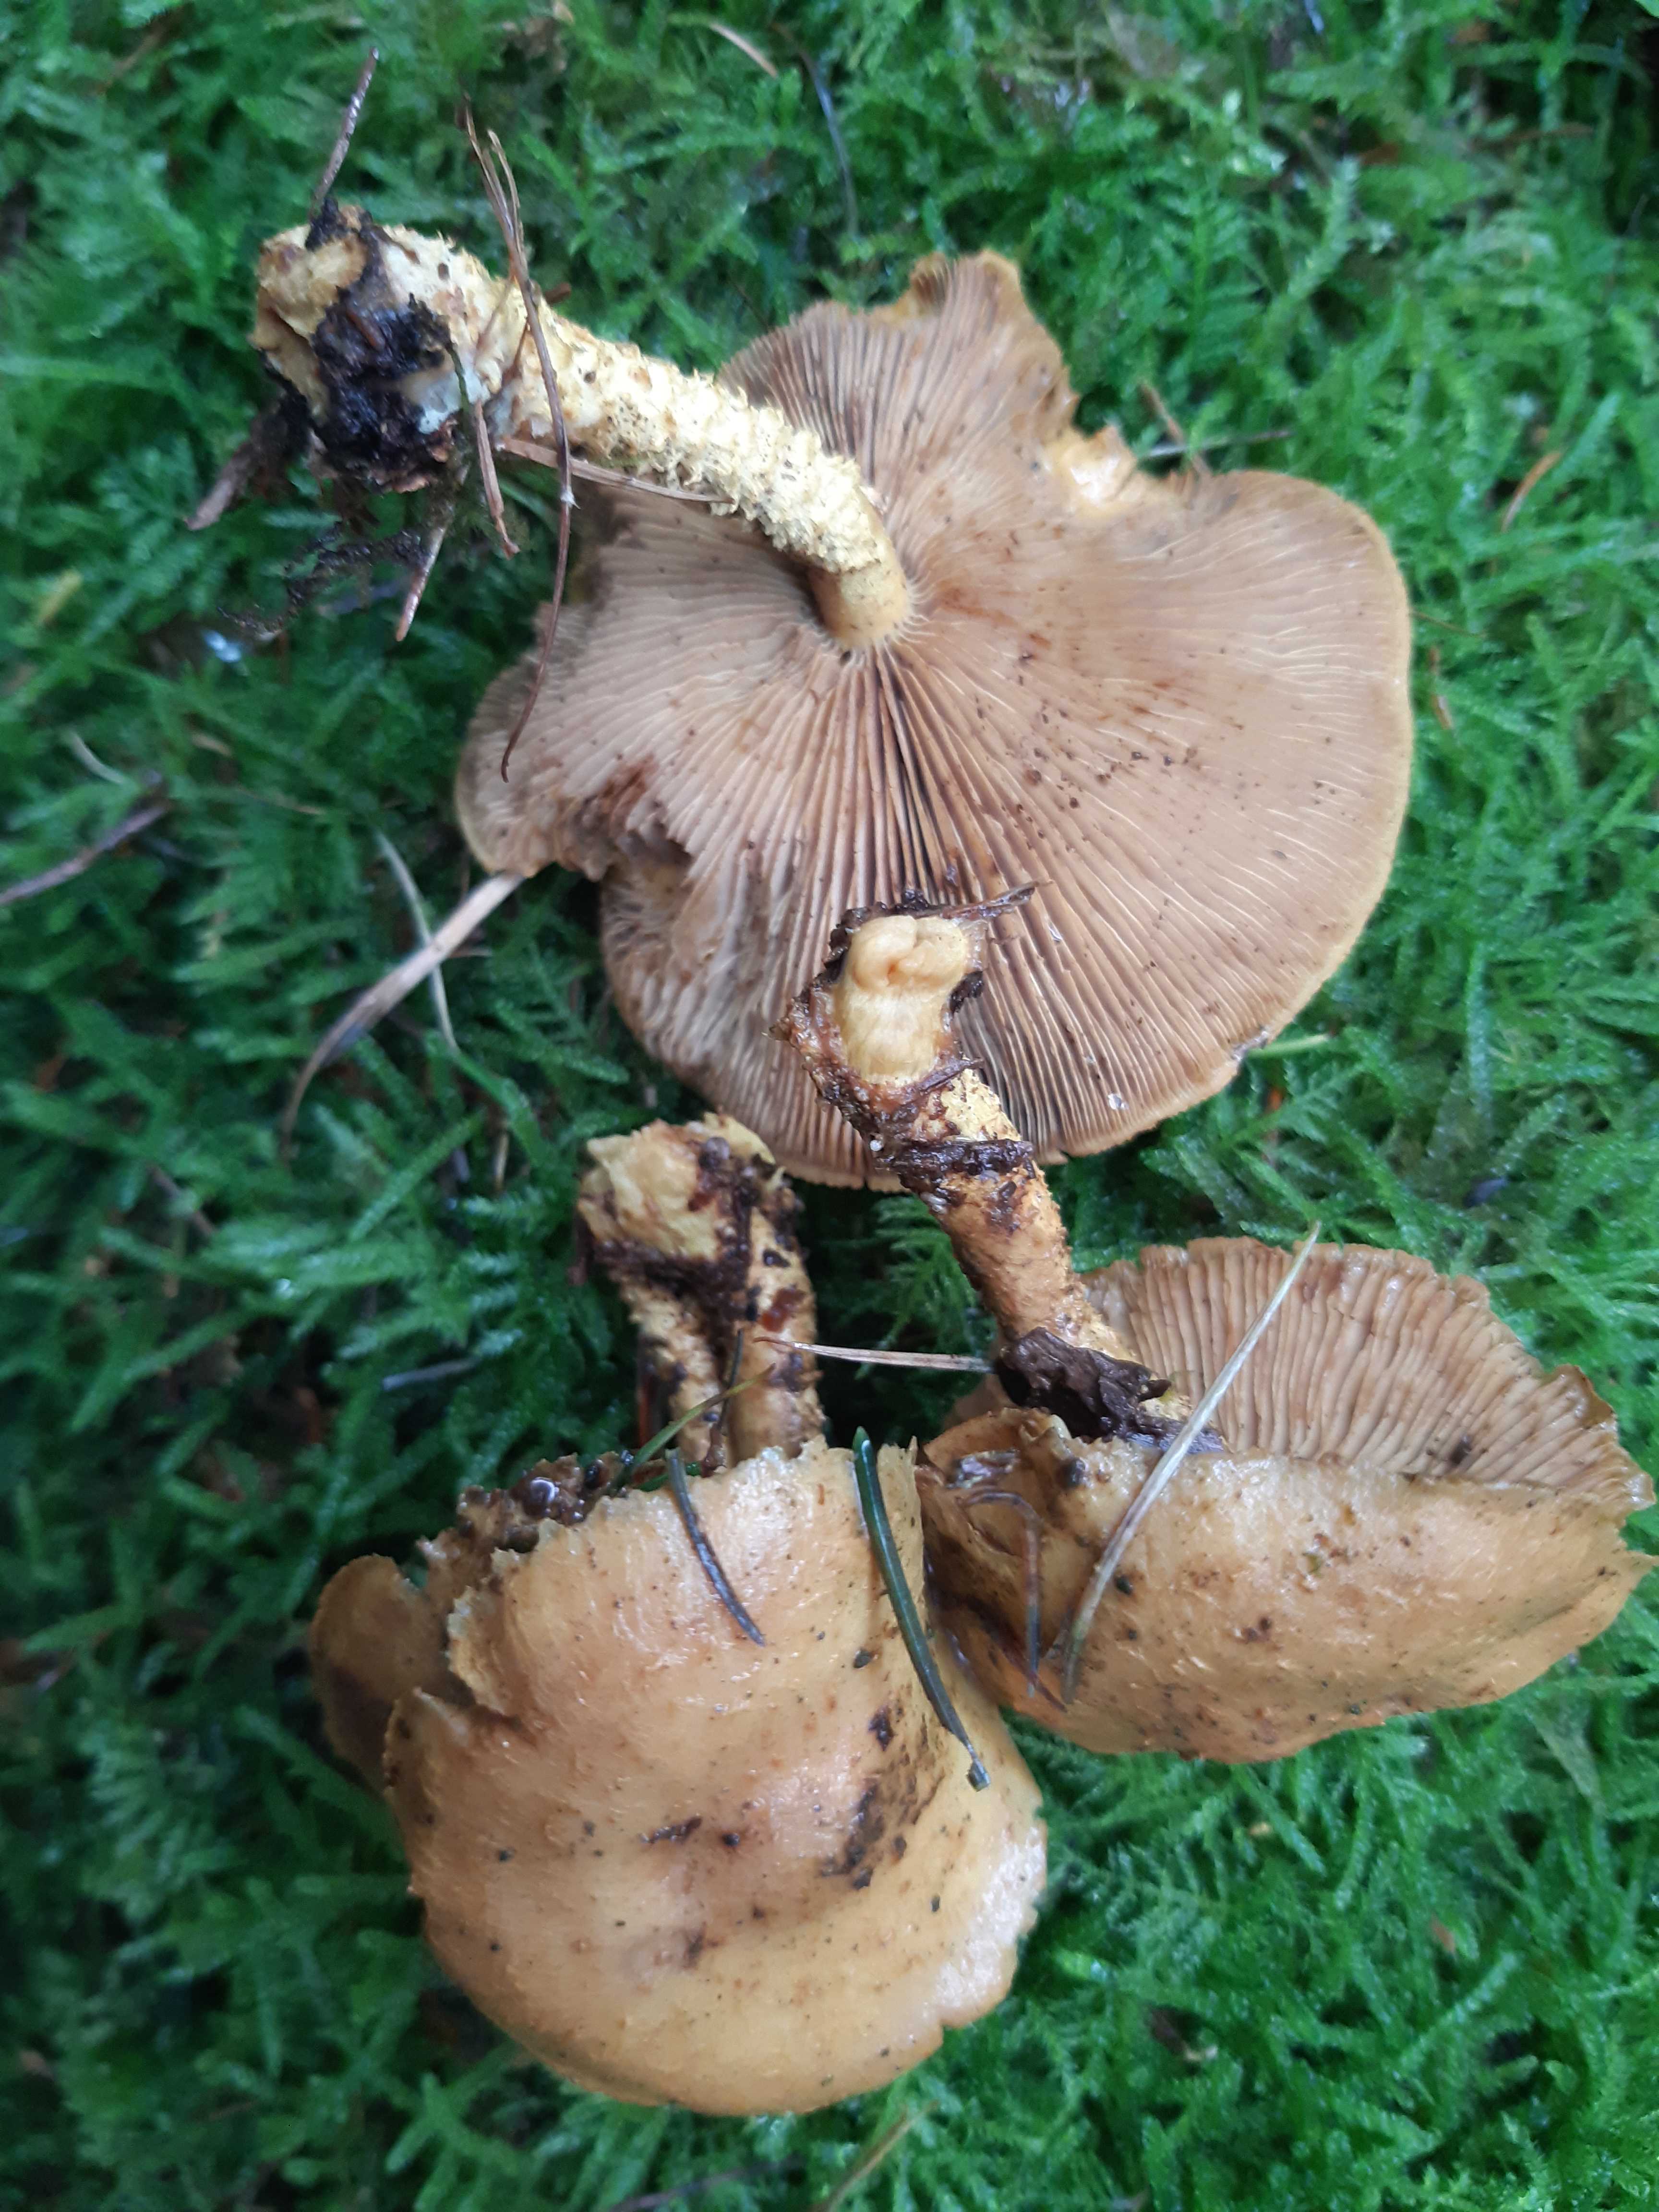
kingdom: Fungi
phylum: Basidiomycota
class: Agaricomycetes
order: Agaricales
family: Strophariaceae
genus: Pholiota
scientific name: Pholiota flammans
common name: flamme-skælhat
